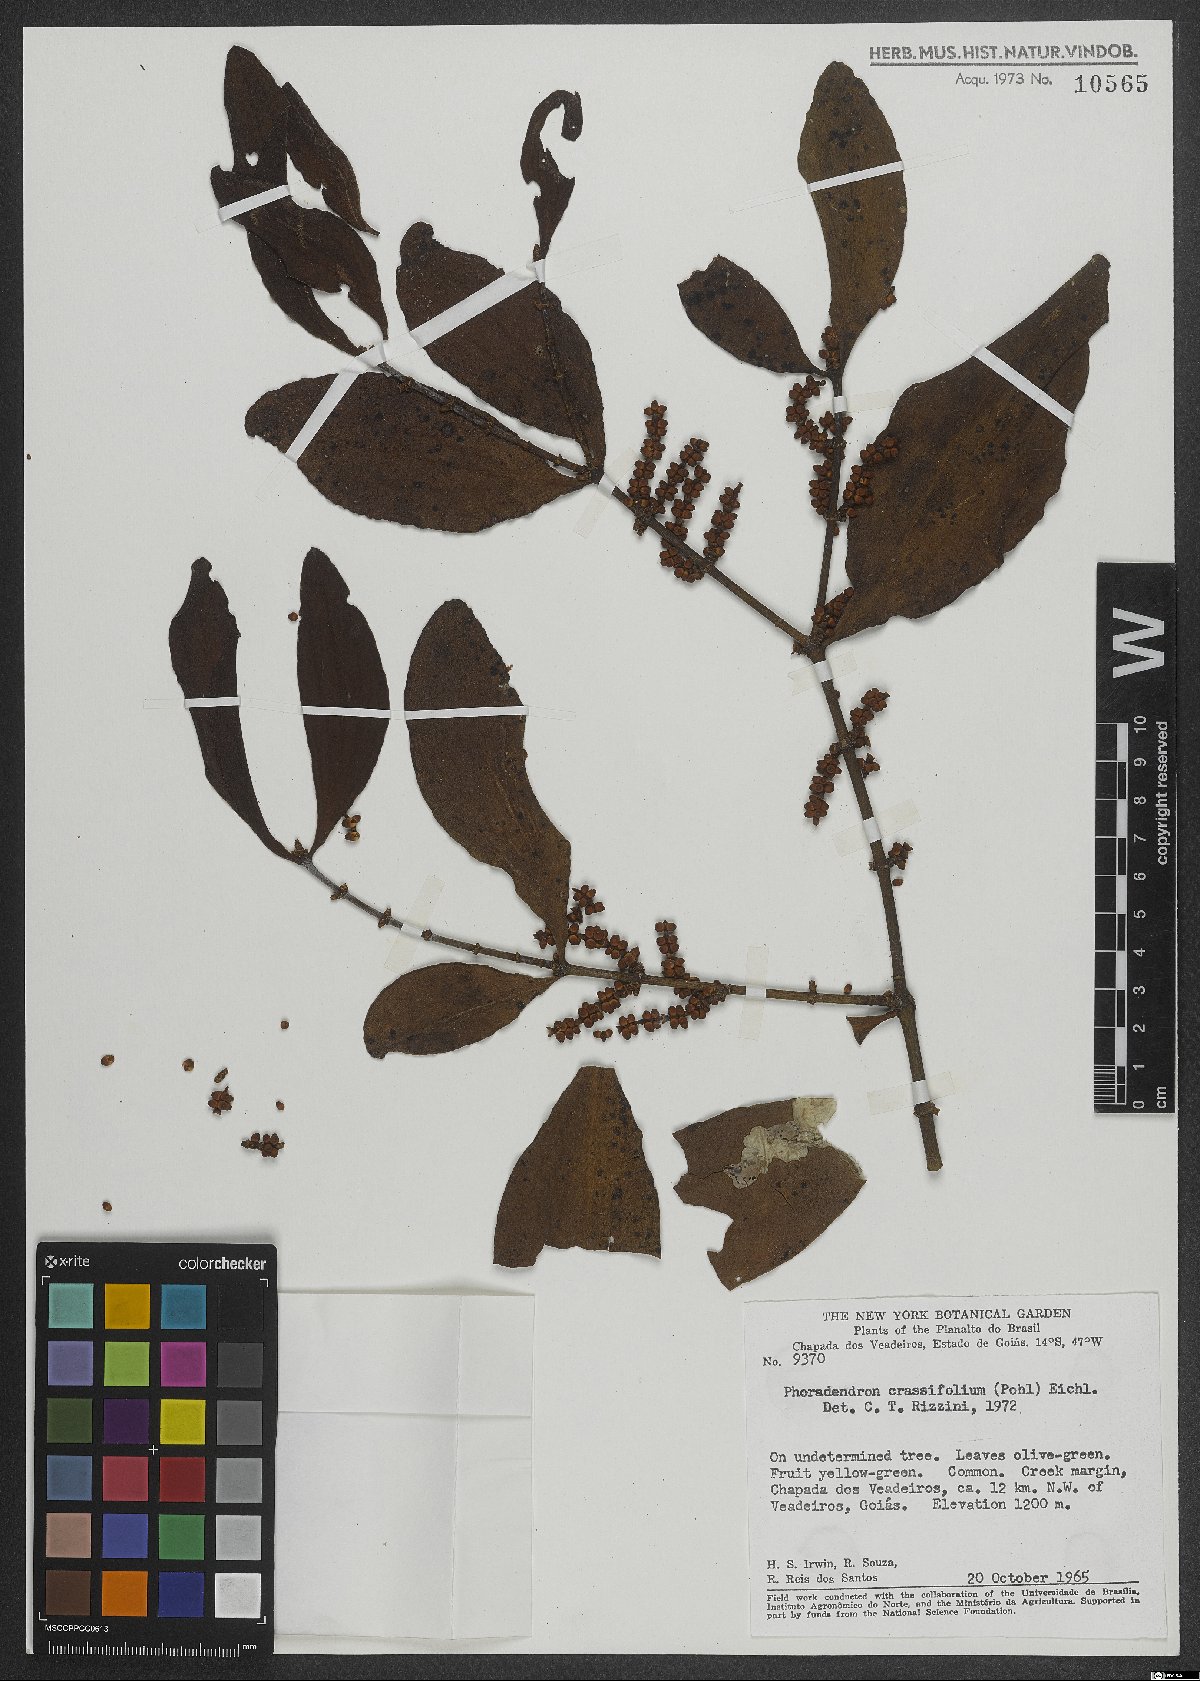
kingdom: Plantae
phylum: Tracheophyta
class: Magnoliopsida
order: Santalales
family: Viscaceae
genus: Phoradendron
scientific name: Phoradendron crassifolium
